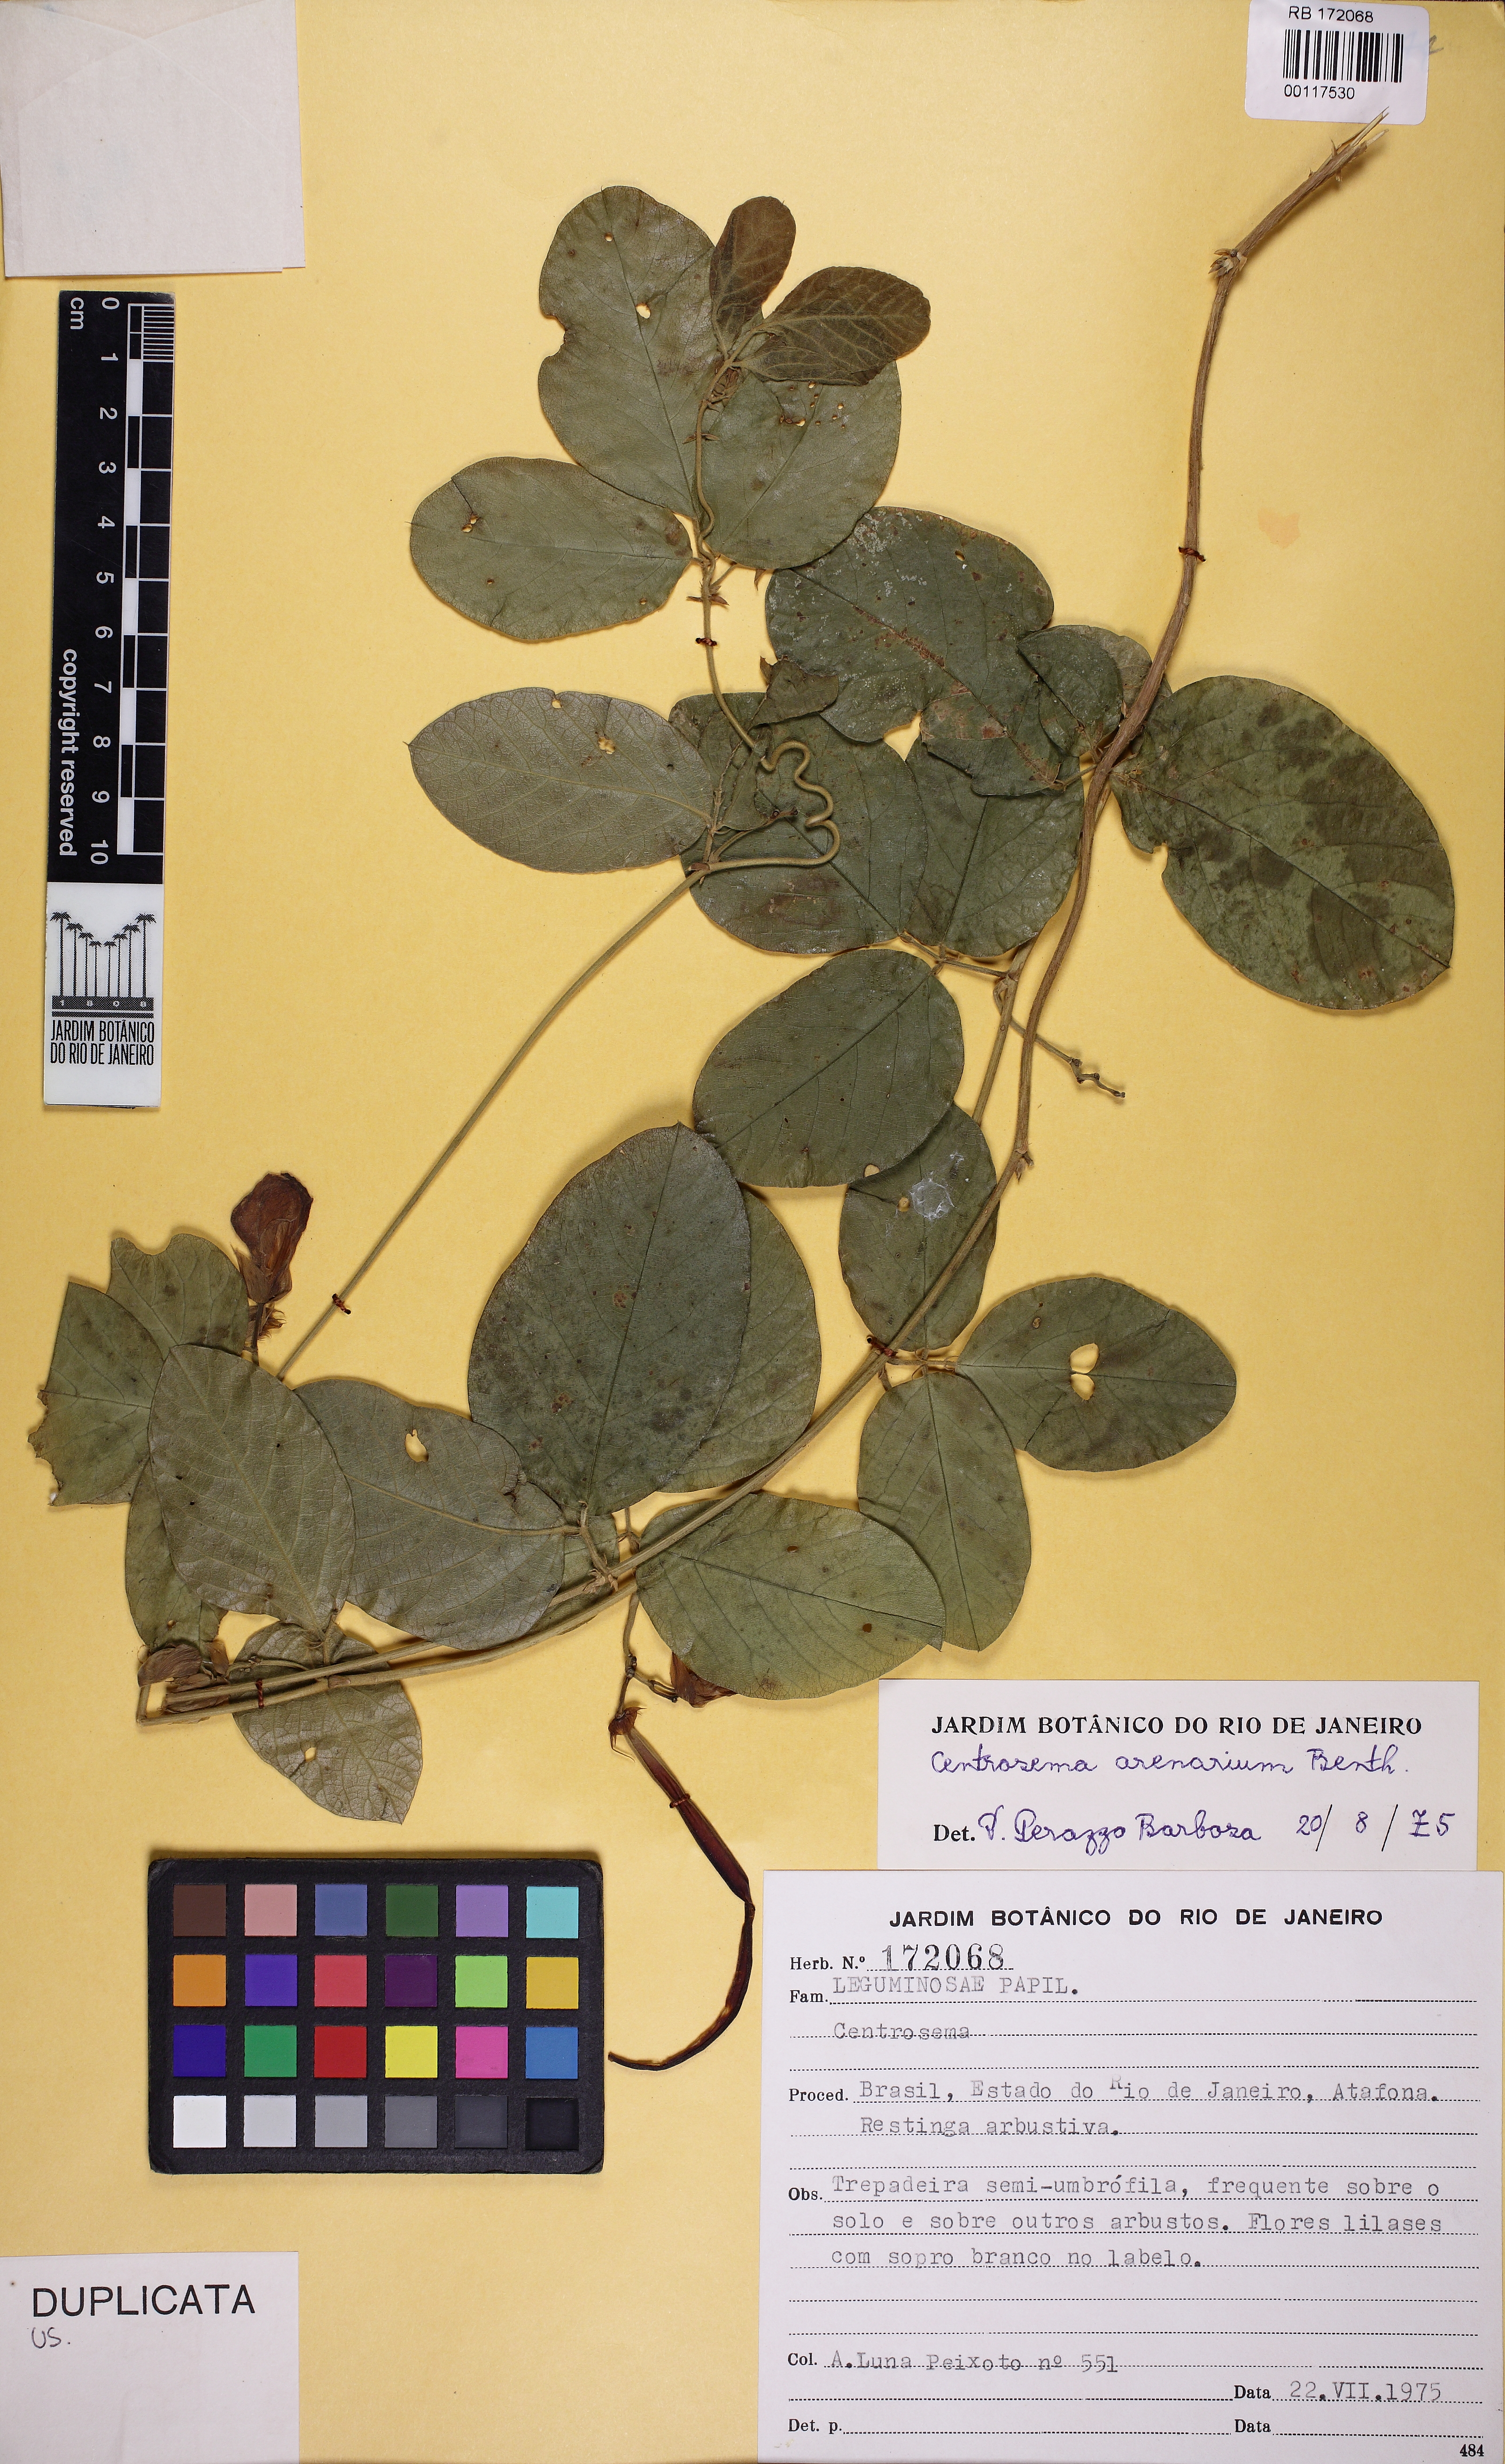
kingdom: Plantae
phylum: Tracheophyta
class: Magnoliopsida
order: Fabales
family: Fabaceae
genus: Centrosema
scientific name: Centrosema arenarium
